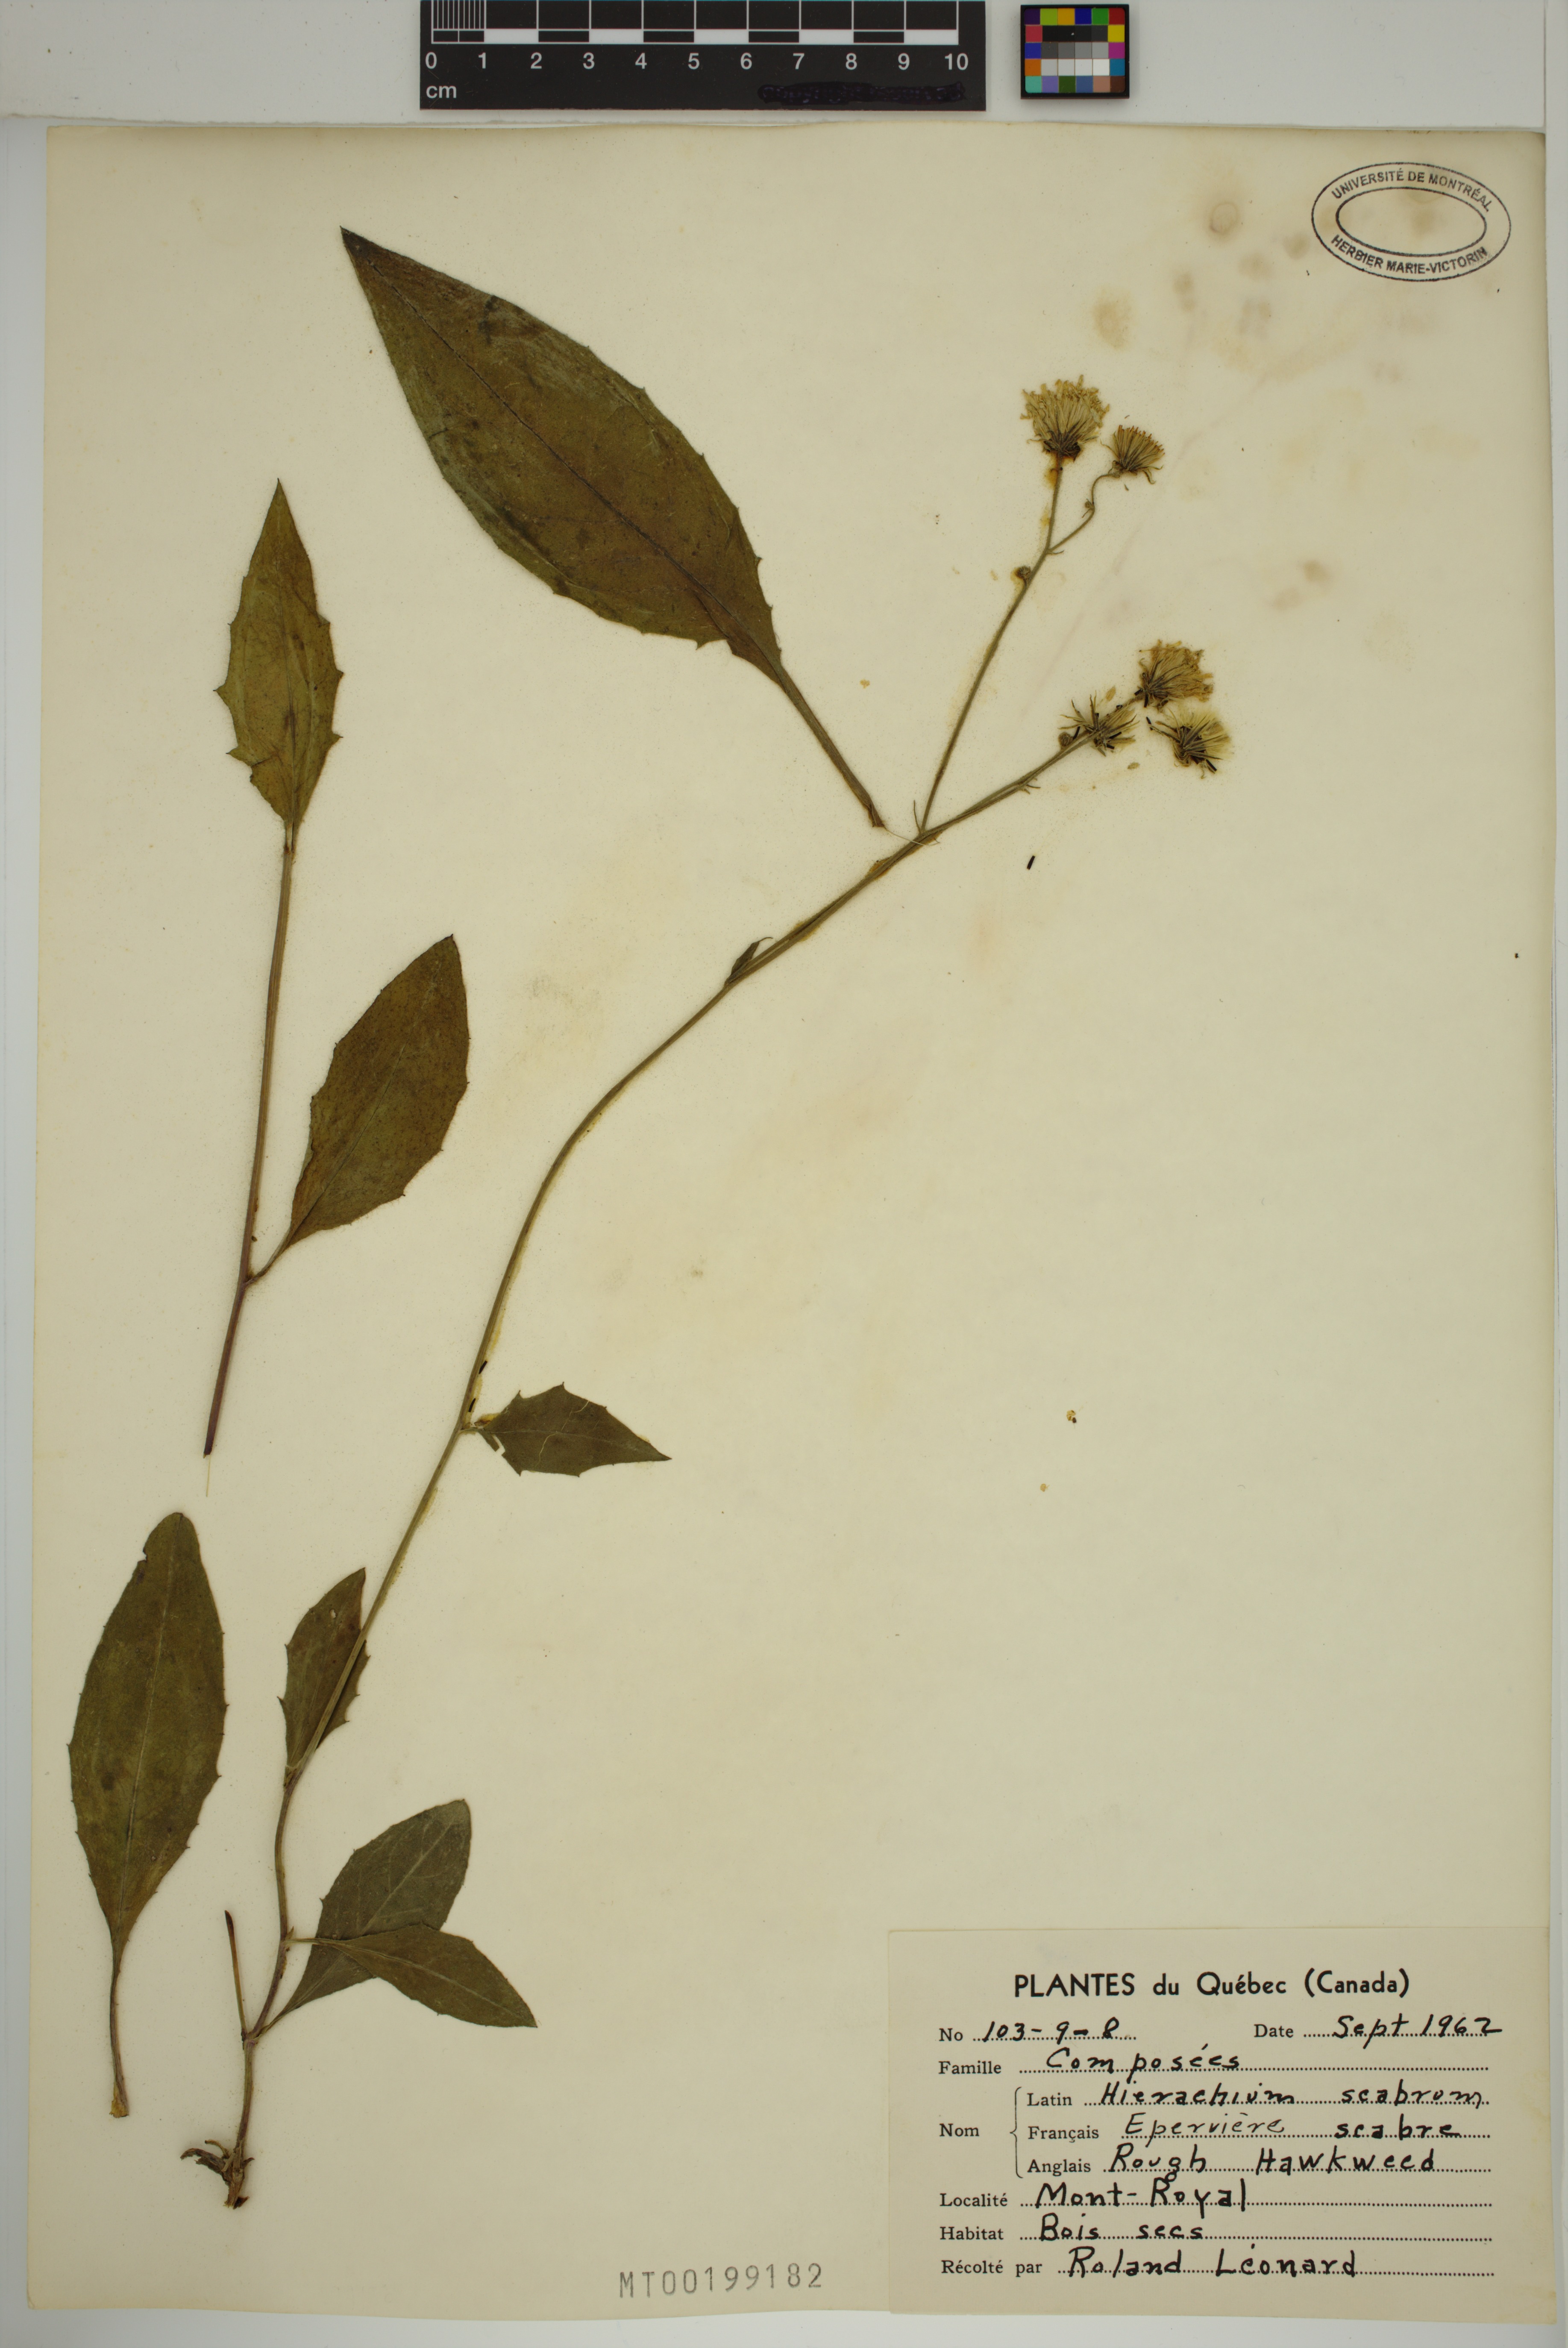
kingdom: Plantae
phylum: Tracheophyta
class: Magnoliopsida
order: Asterales
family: Asteraceae
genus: Hieracium
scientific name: Hieracium scabrum
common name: Rough hawkweed
